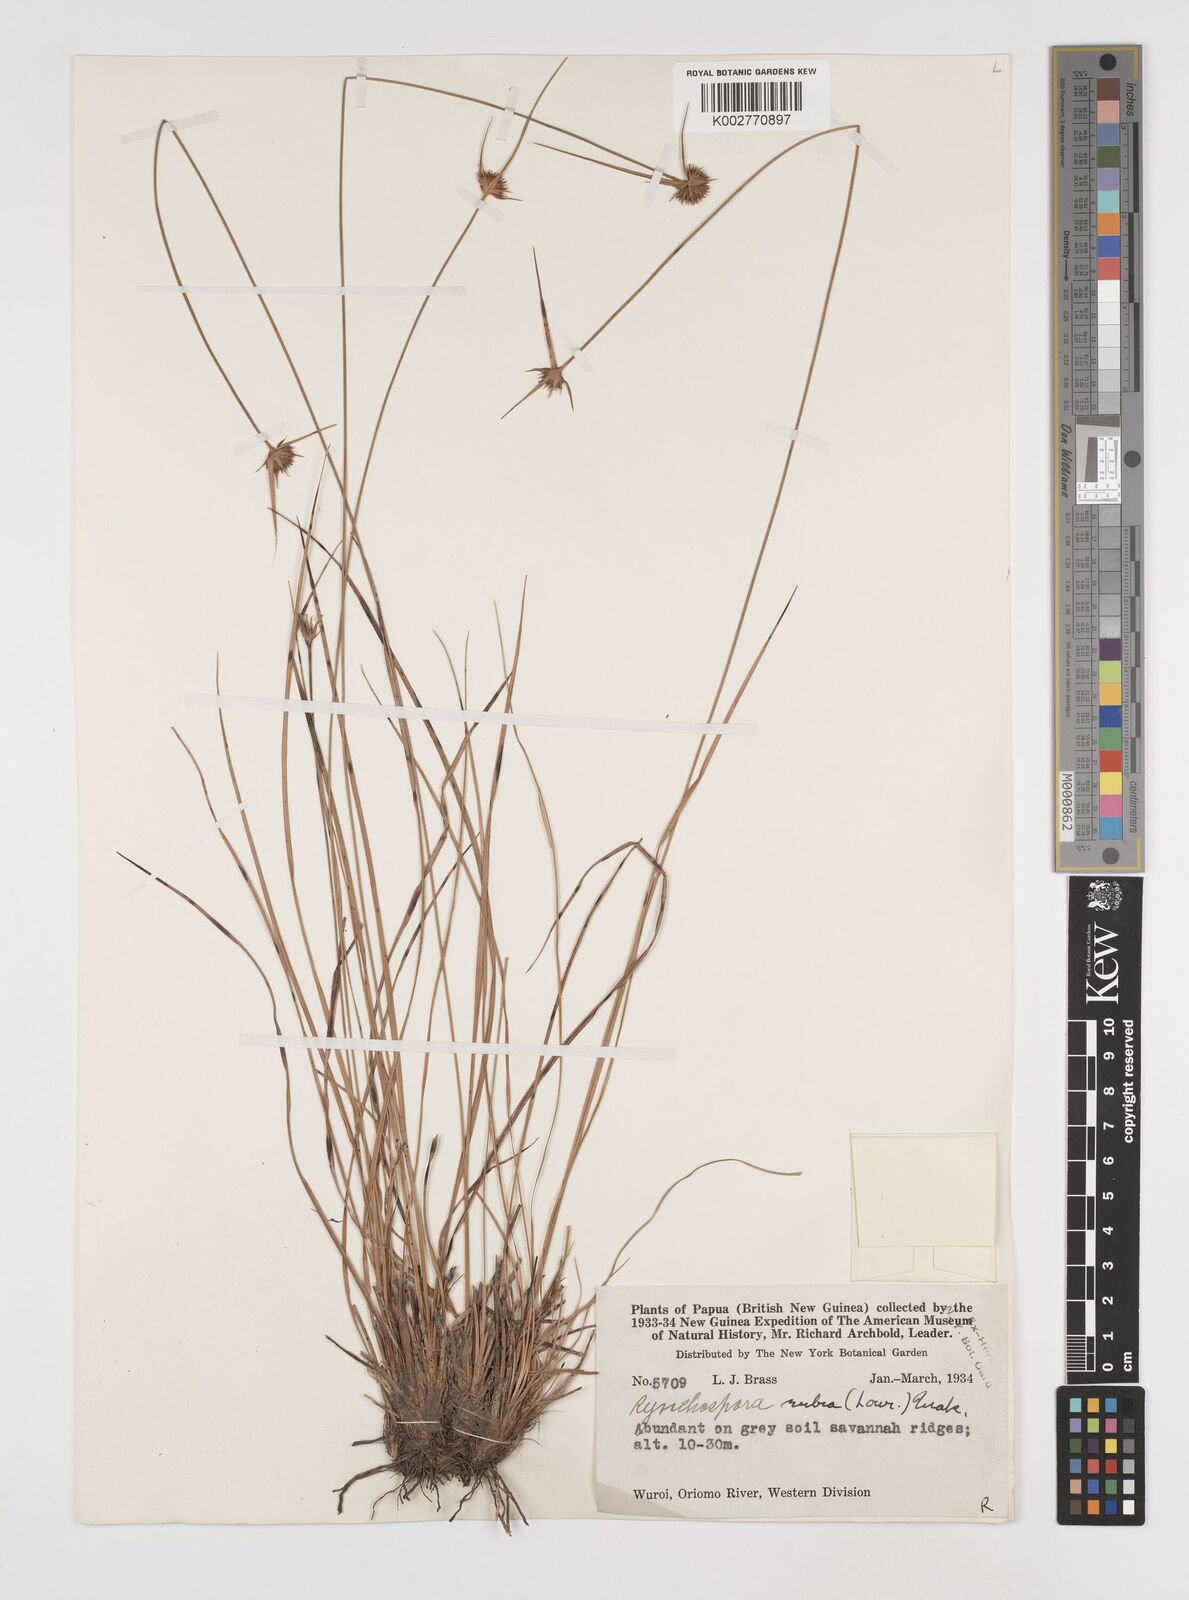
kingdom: Plantae
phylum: Tracheophyta
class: Liliopsida
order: Poales
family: Cyperaceae
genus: Rhynchospora
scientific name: Rhynchospora rubra
